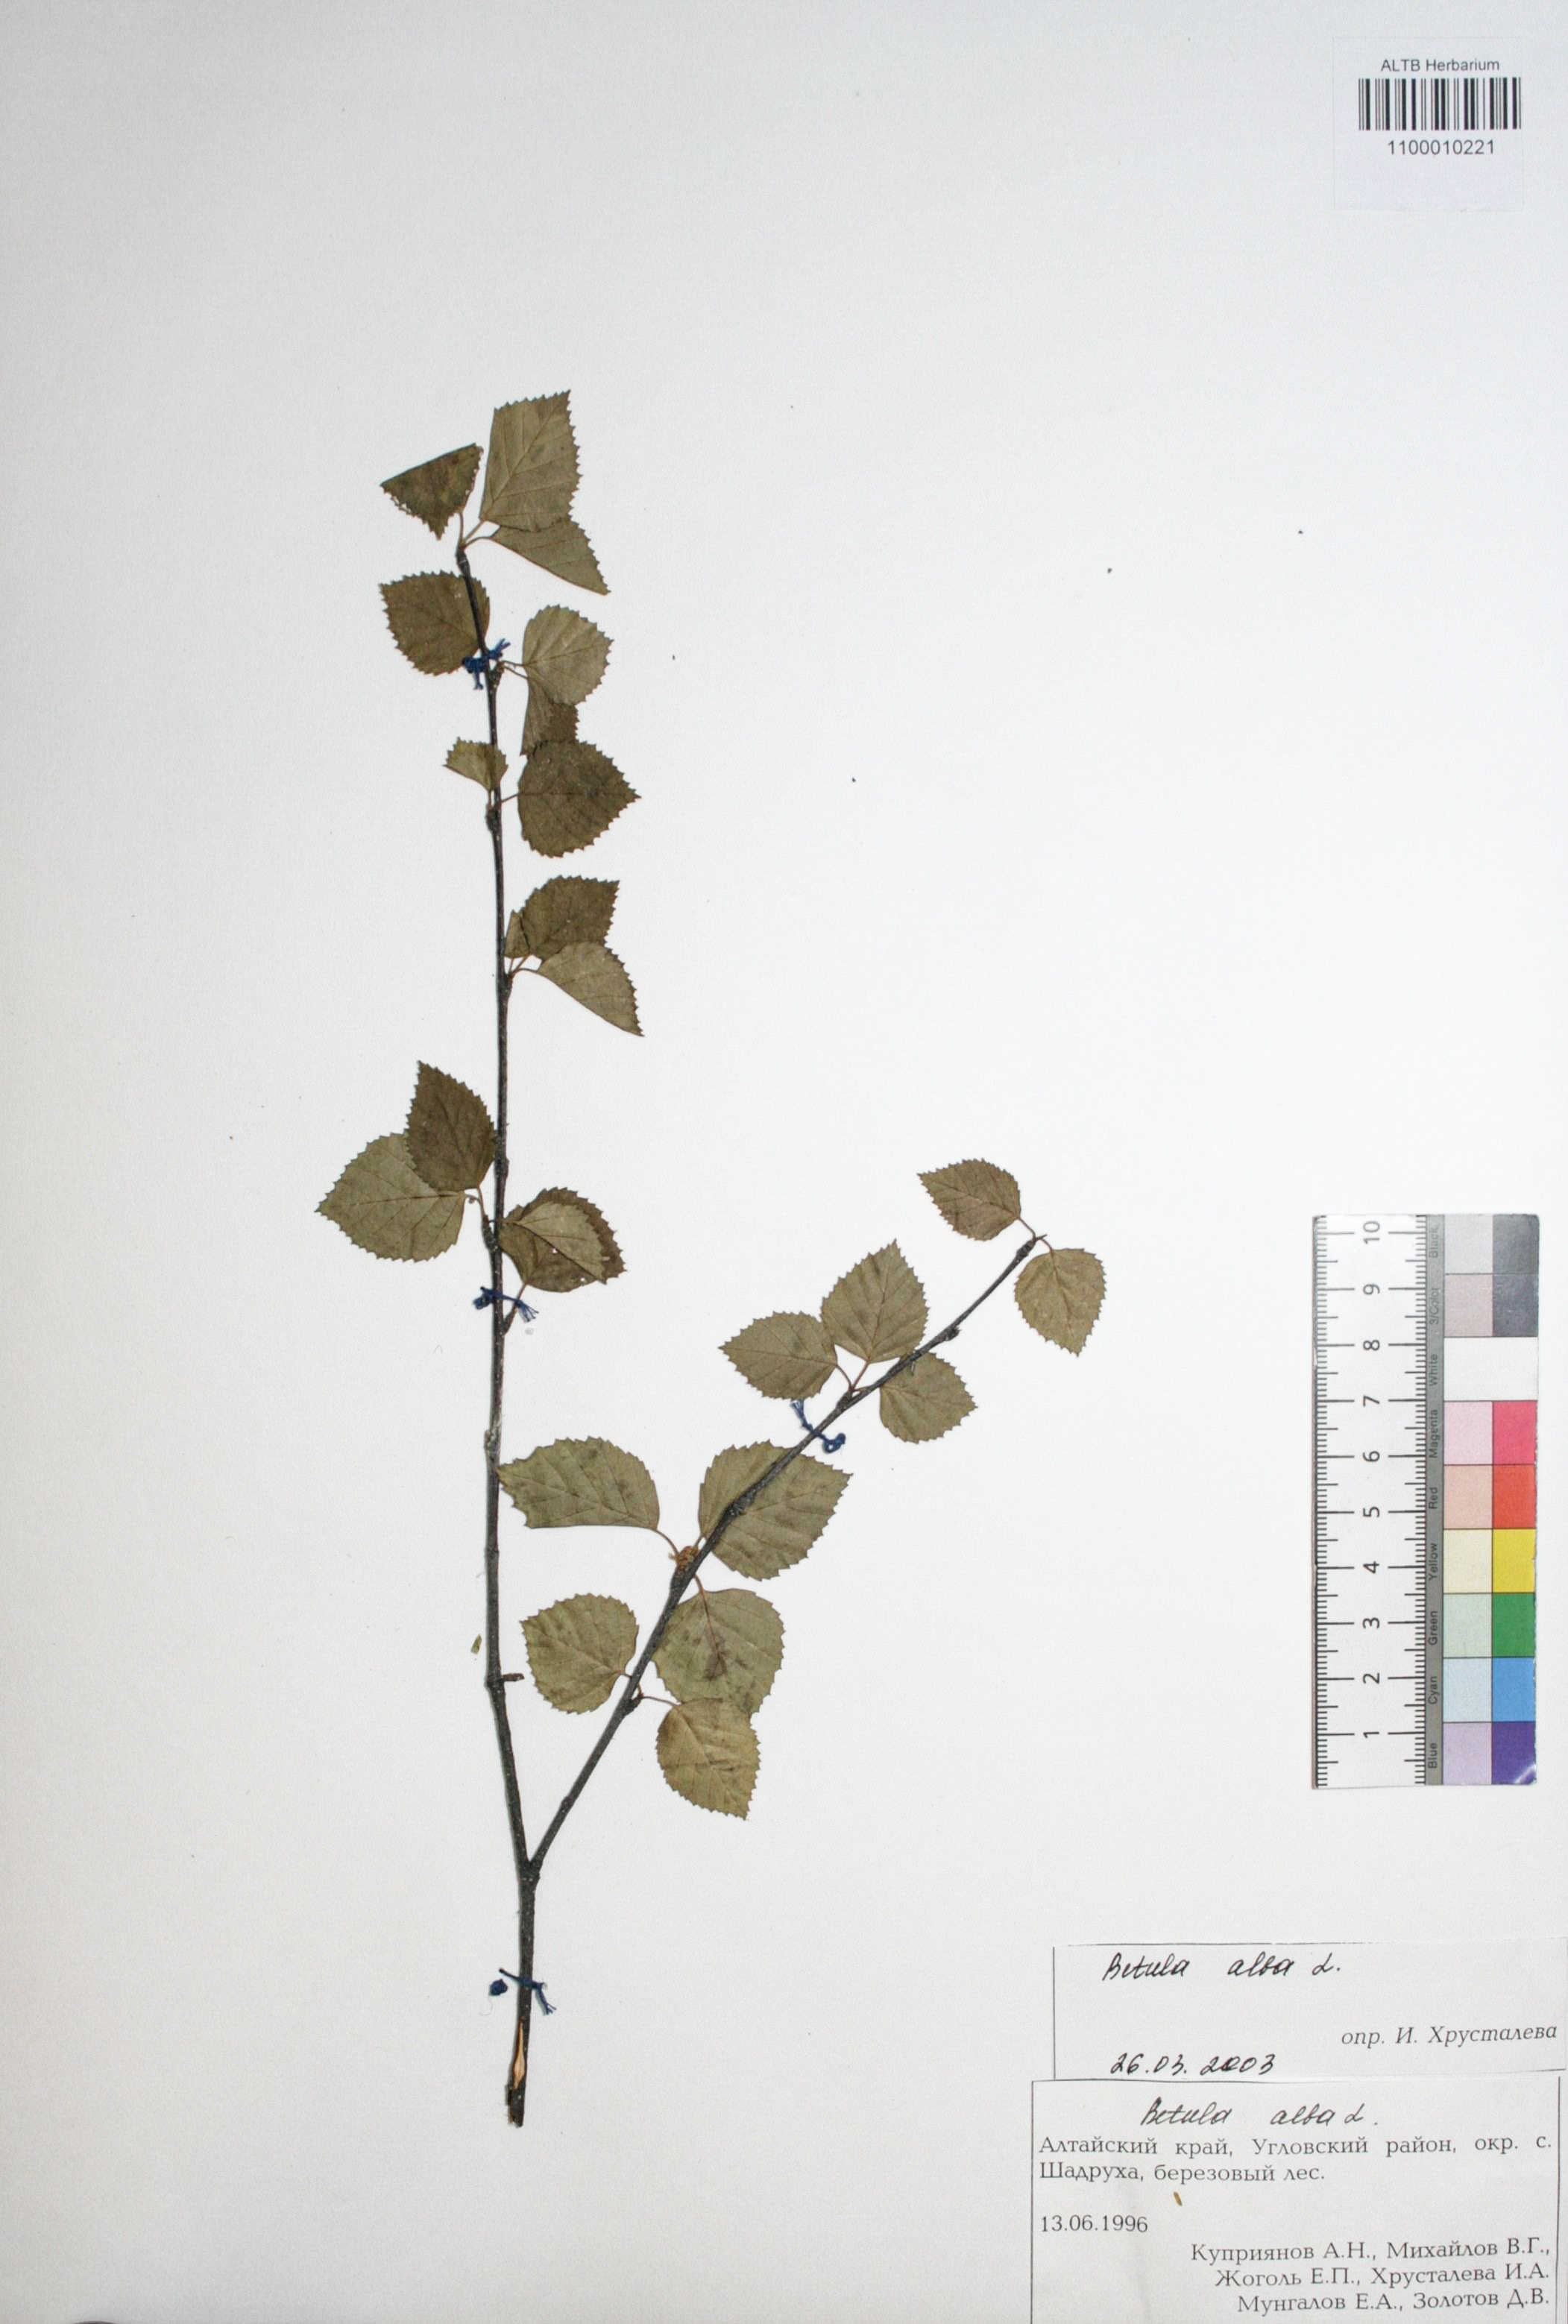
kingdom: Plantae
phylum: Tracheophyta
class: Magnoliopsida
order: Fagales
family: Betulaceae
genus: Betula
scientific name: Betula pubescens
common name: Downy birch
